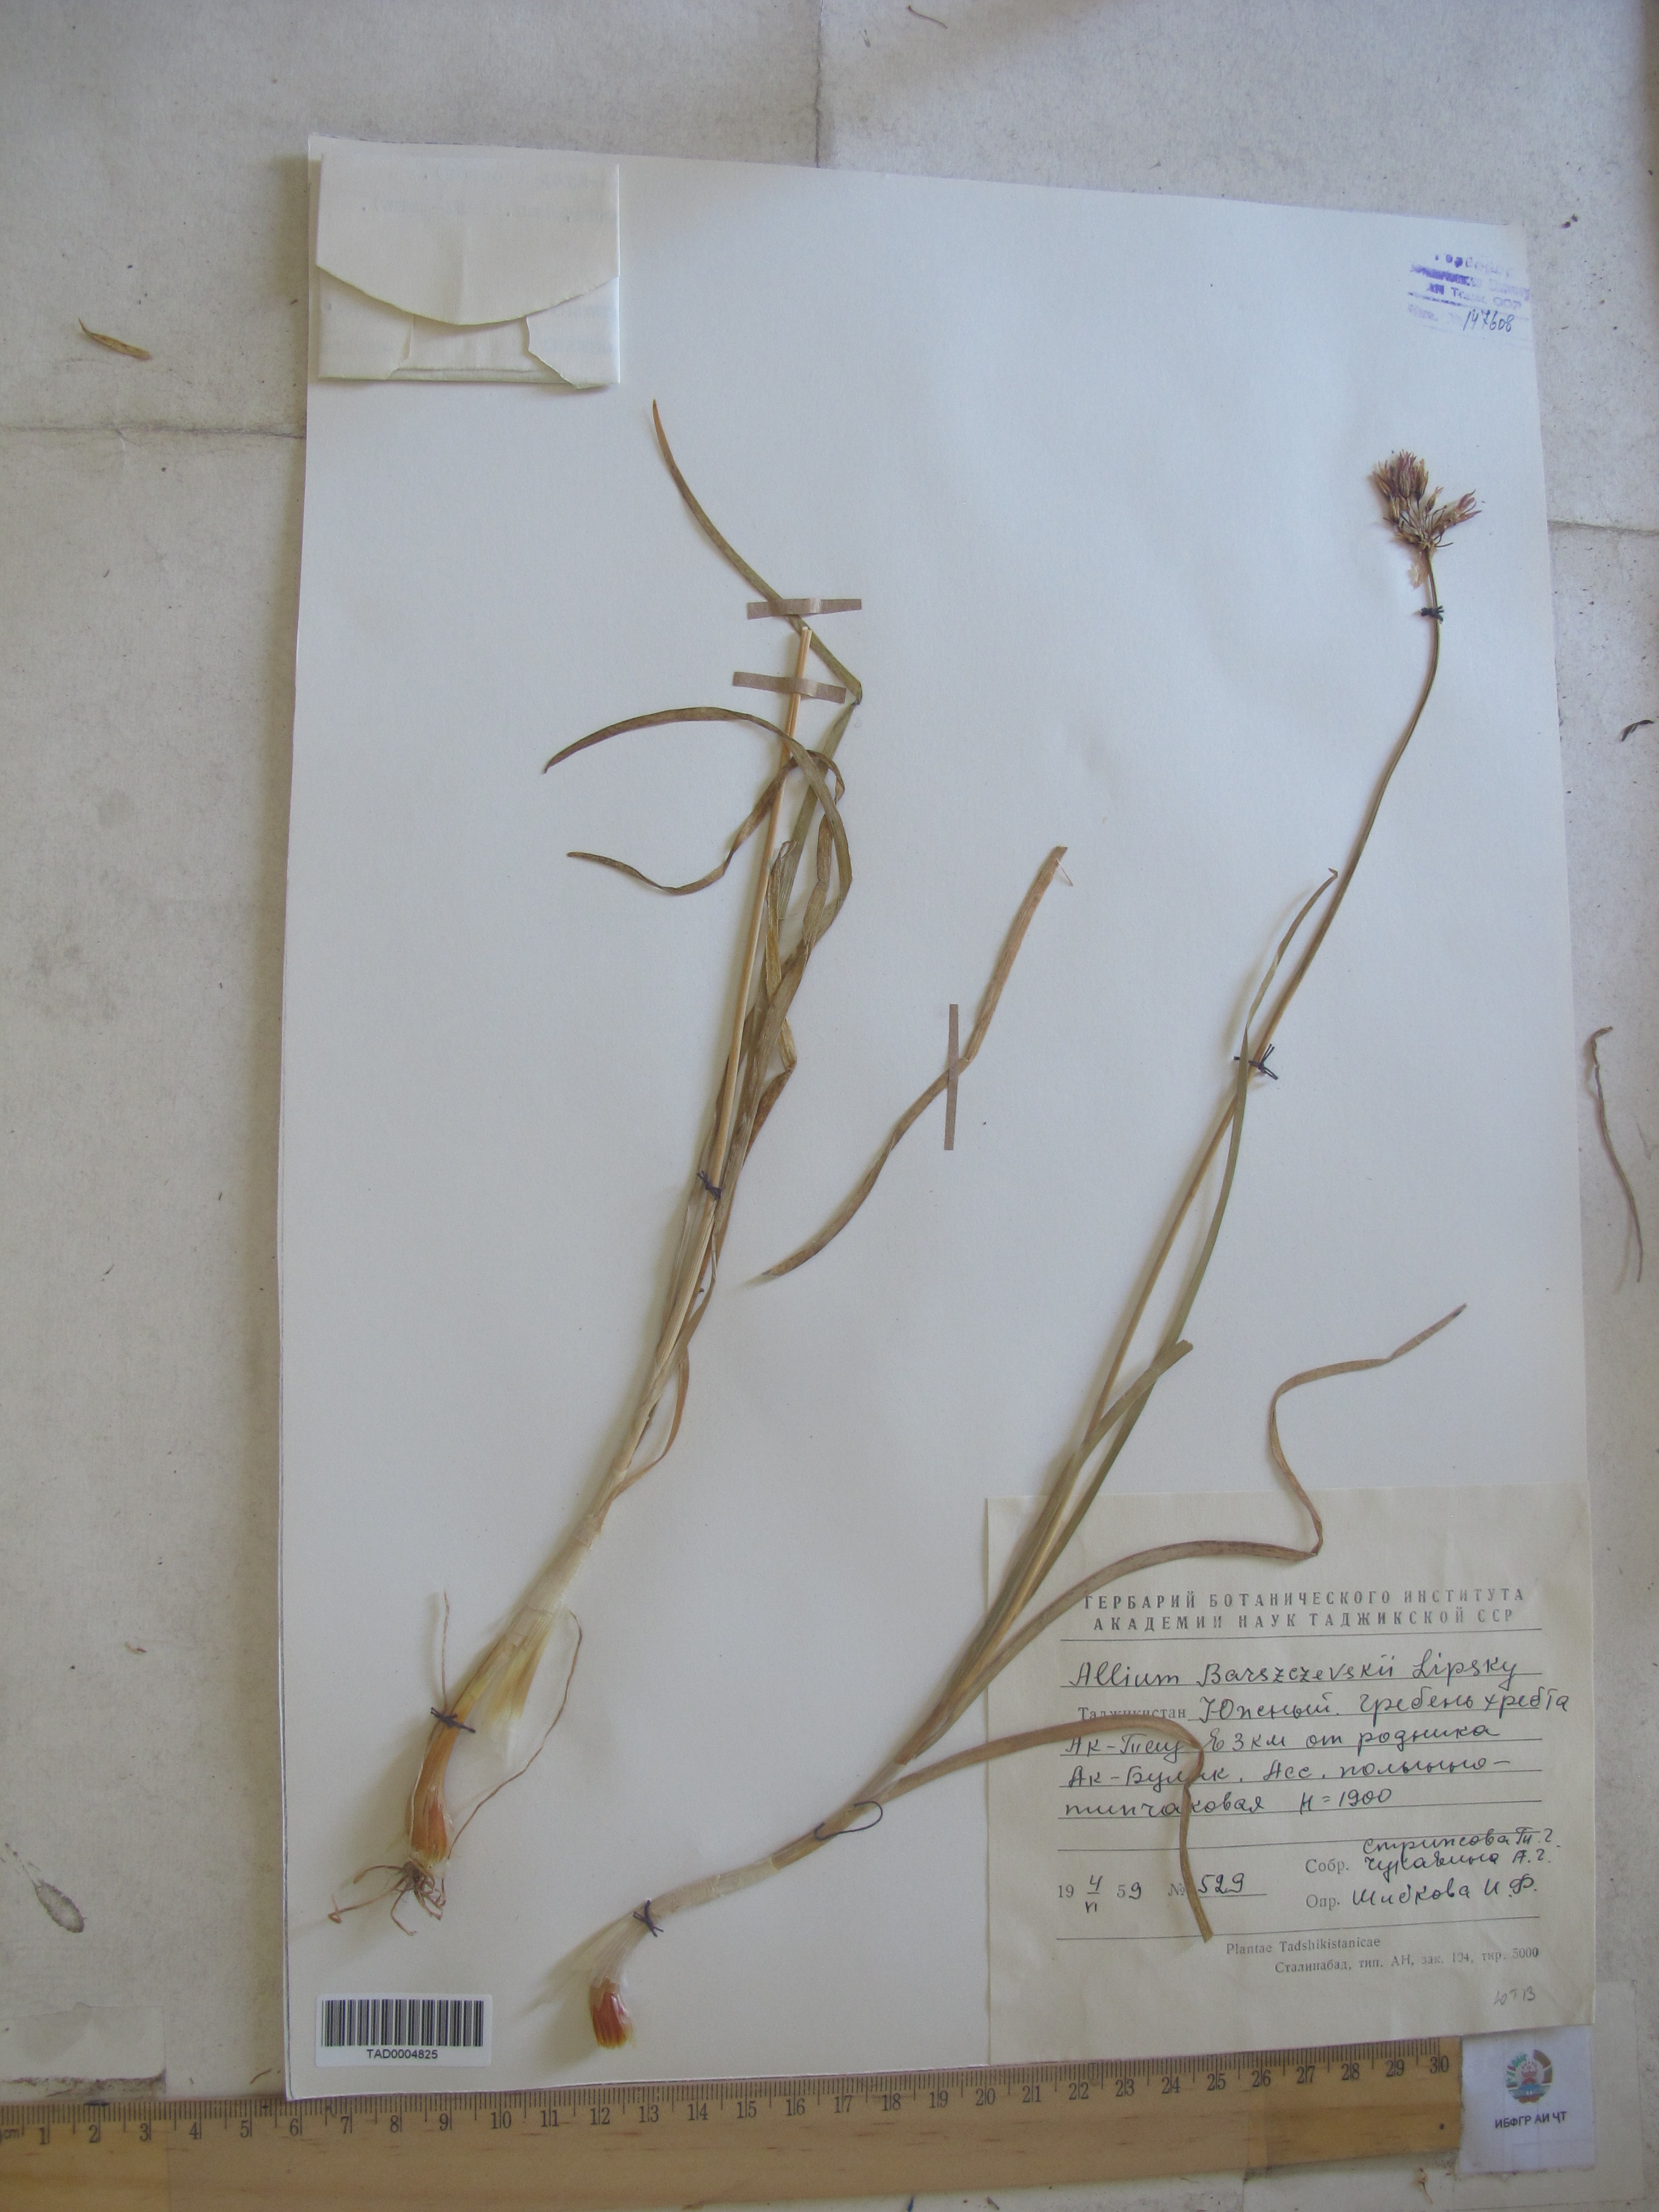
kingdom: Plantae
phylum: Tracheophyta
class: Liliopsida
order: Asparagales
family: Amaryllidaceae
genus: Allium
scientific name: Allium barszczewskii
